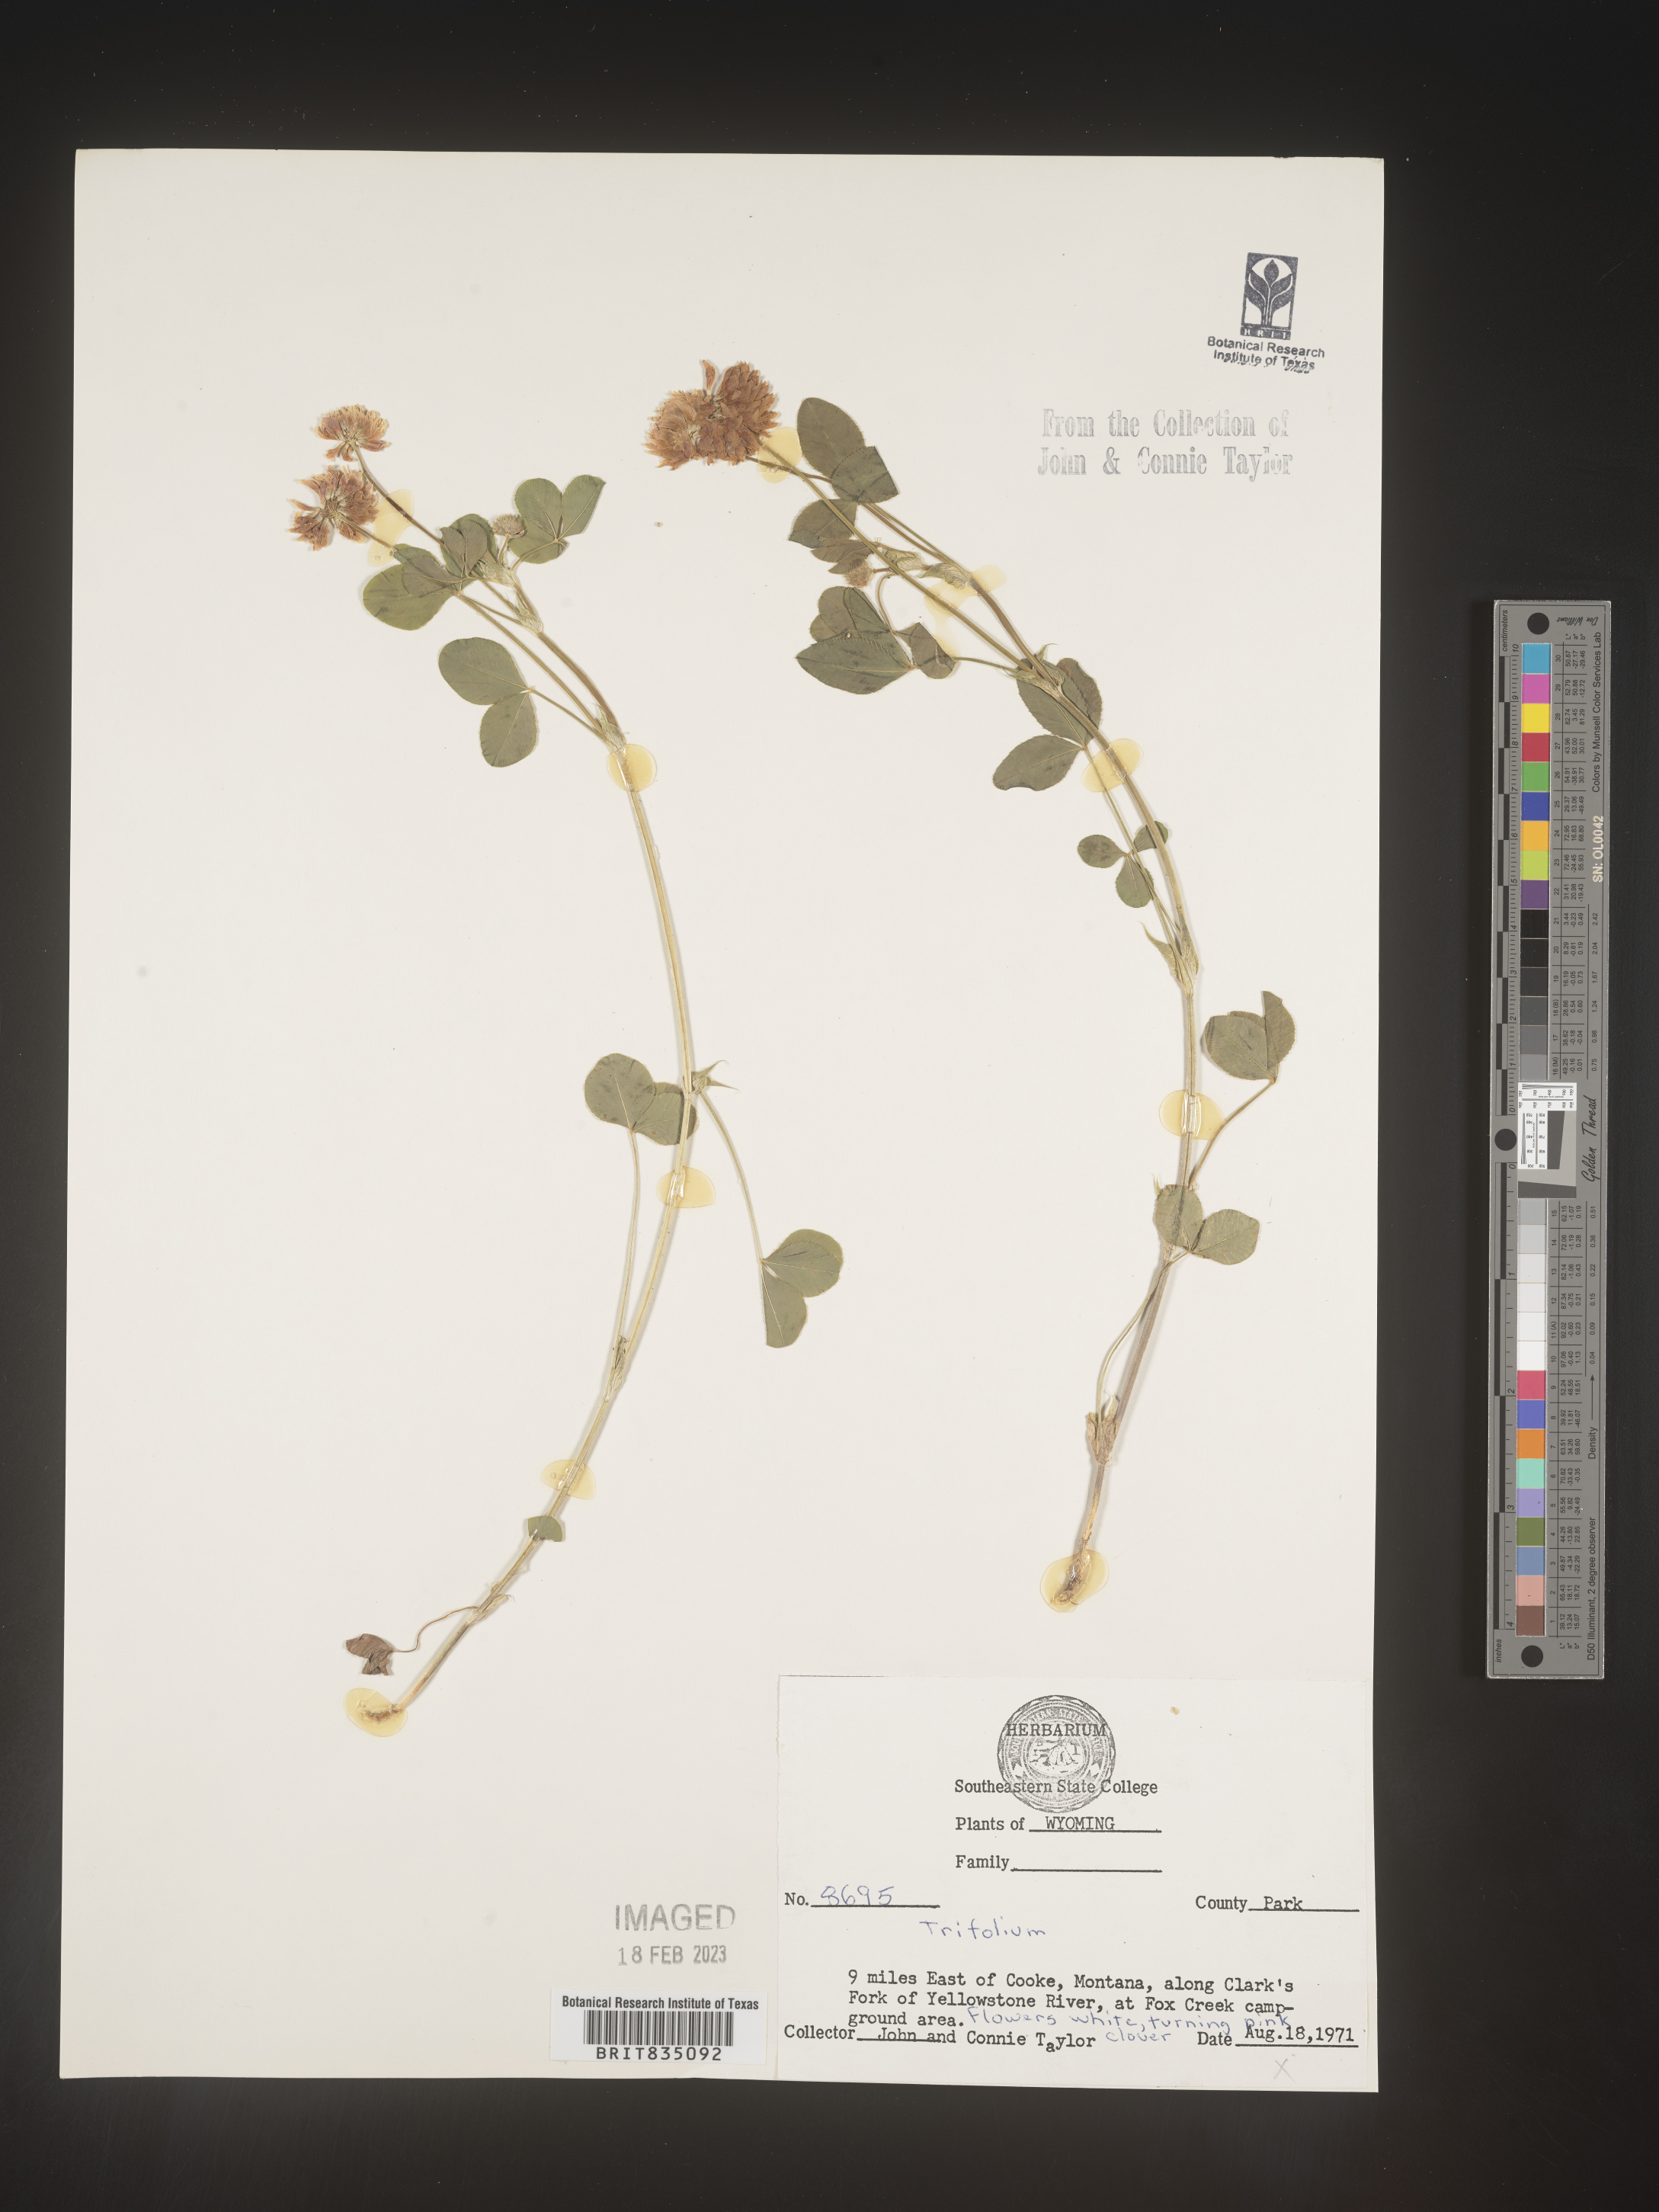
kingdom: Plantae
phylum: Tracheophyta
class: Magnoliopsida
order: Fabales
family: Fabaceae
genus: Trifolium
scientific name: Trifolium
